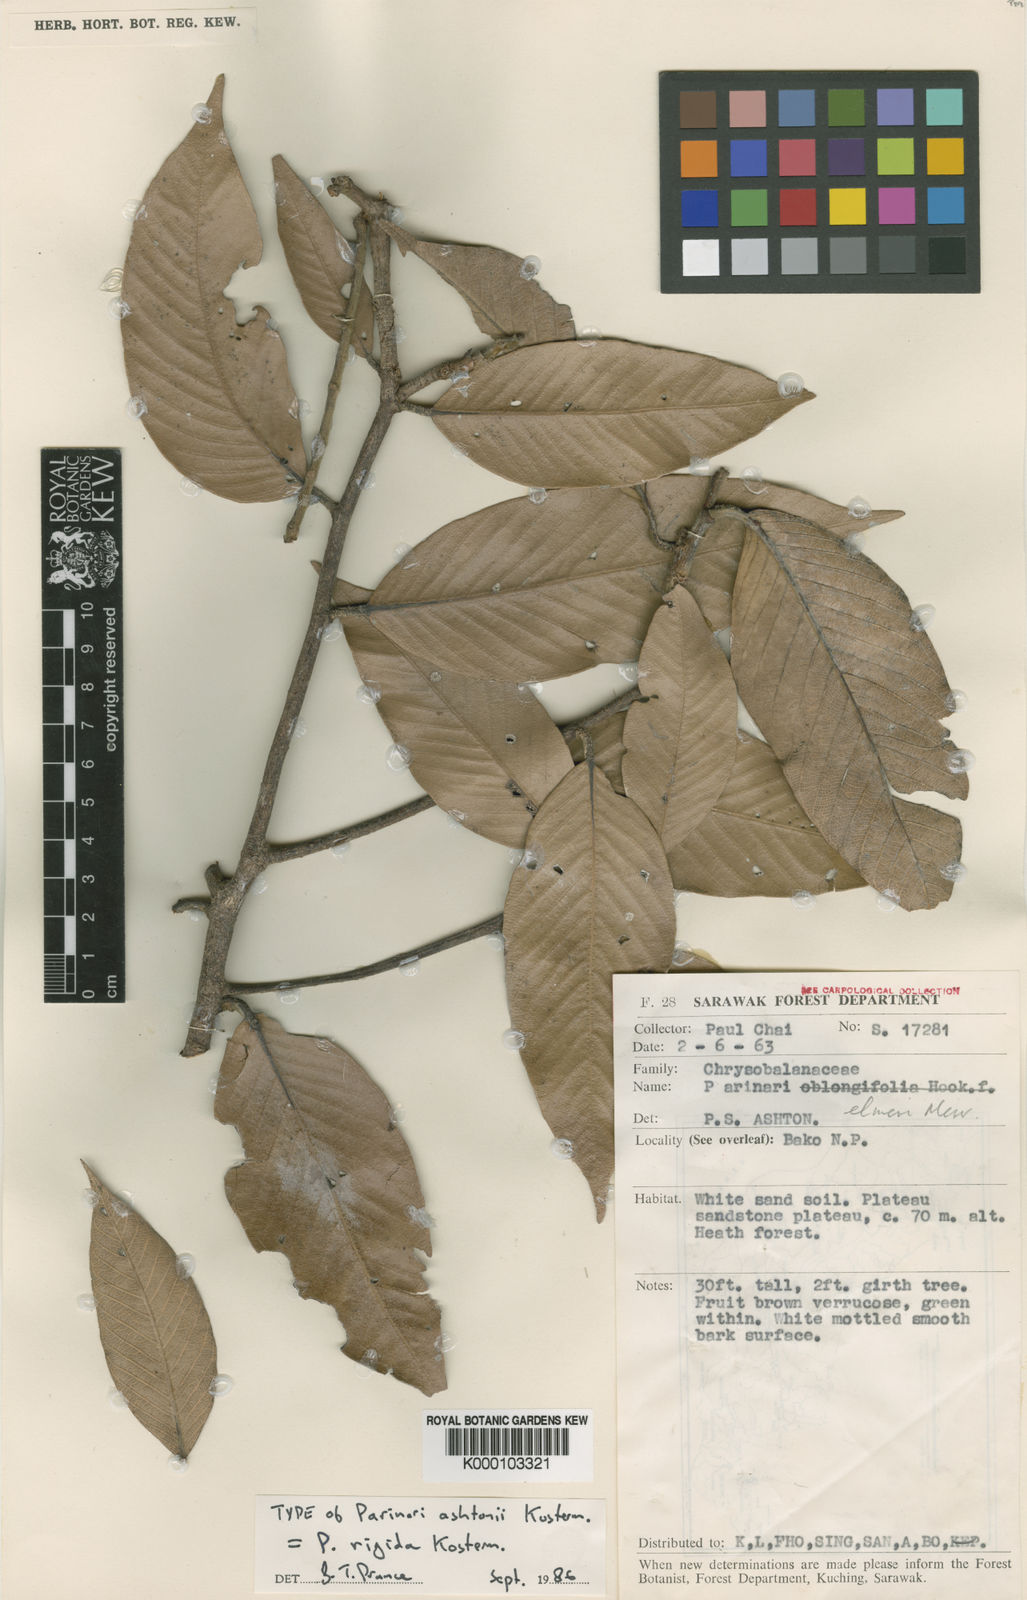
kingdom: Plantae
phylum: Tracheophyta
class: Magnoliopsida
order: Malpighiales
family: Chrysobalanaceae
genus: Parinari
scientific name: Parinari rigida
